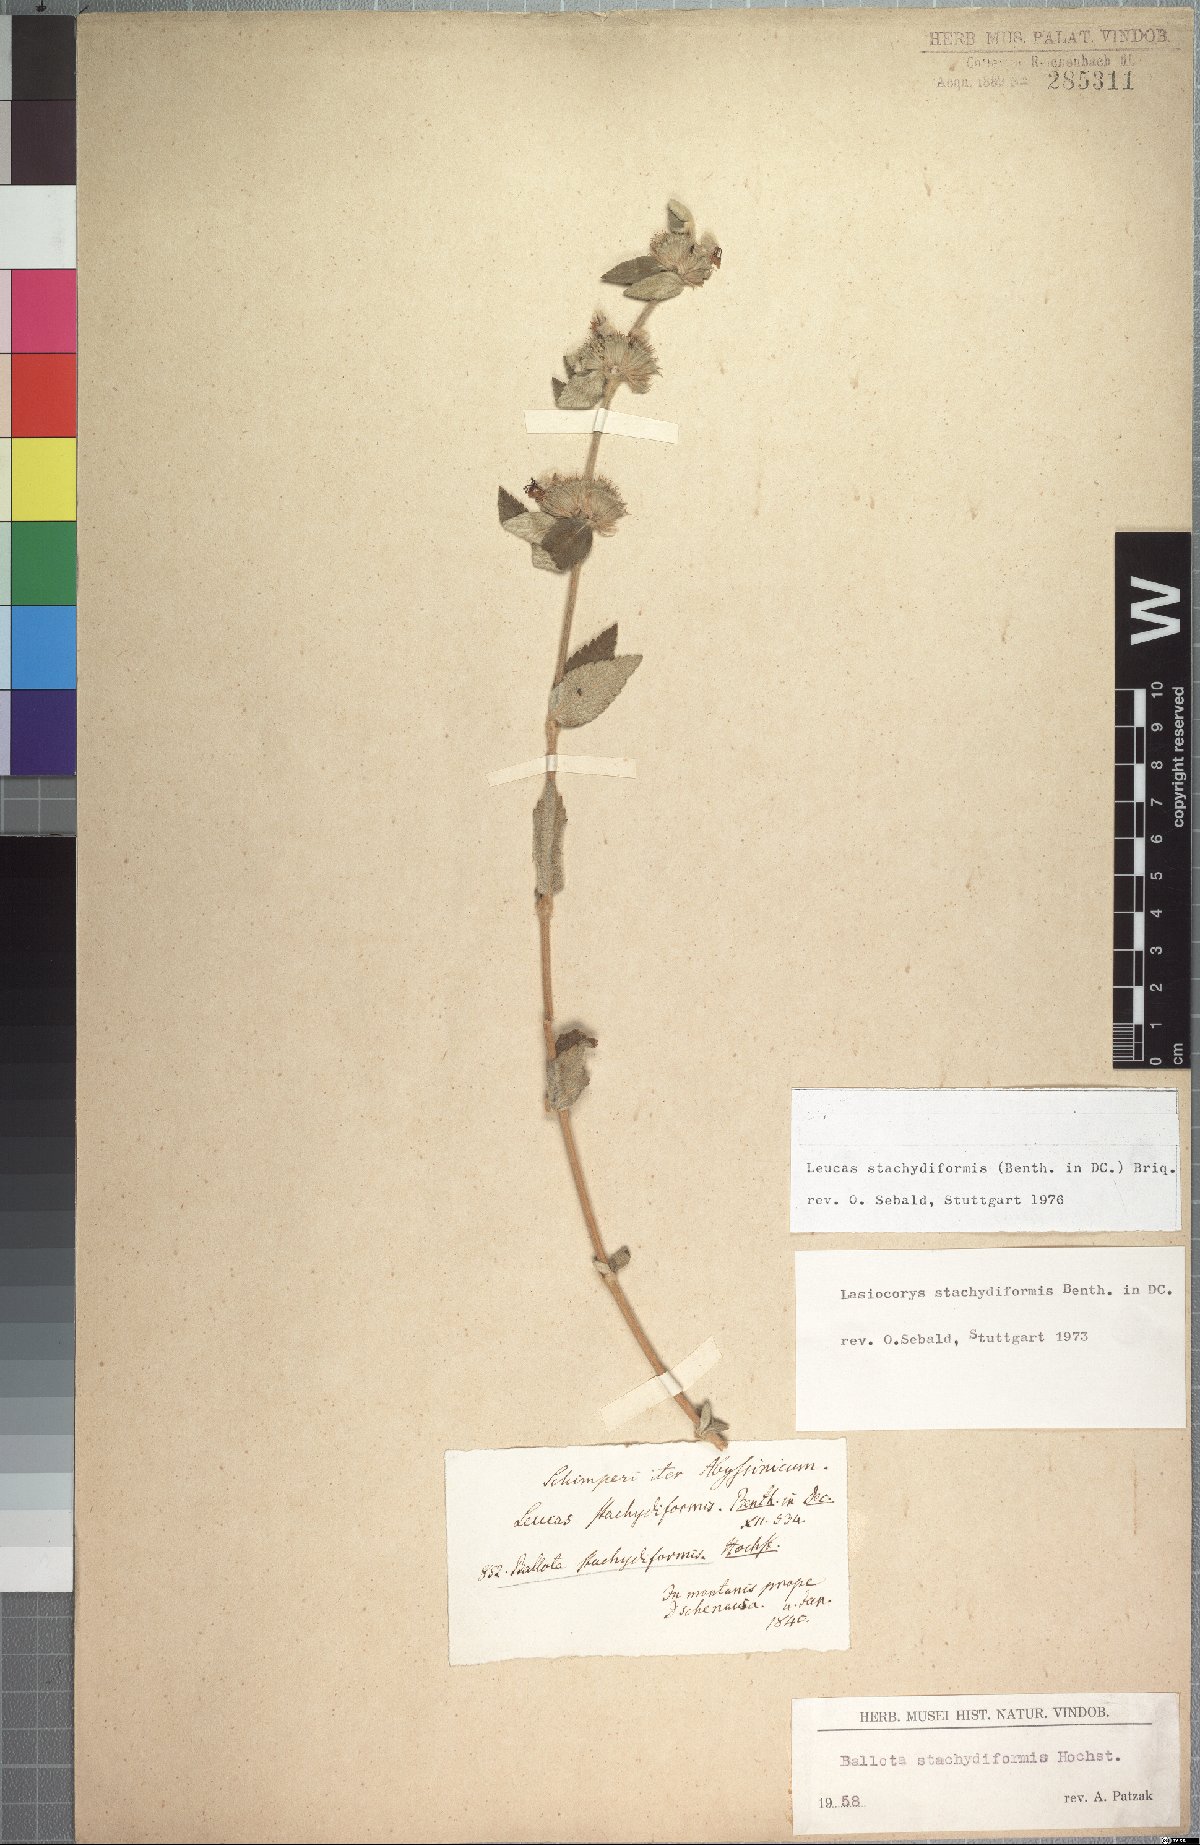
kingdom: Plantae
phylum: Tracheophyta
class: Magnoliopsida
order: Lamiales
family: Lamiaceae
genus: Leucas
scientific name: Leucas stachydiformis
